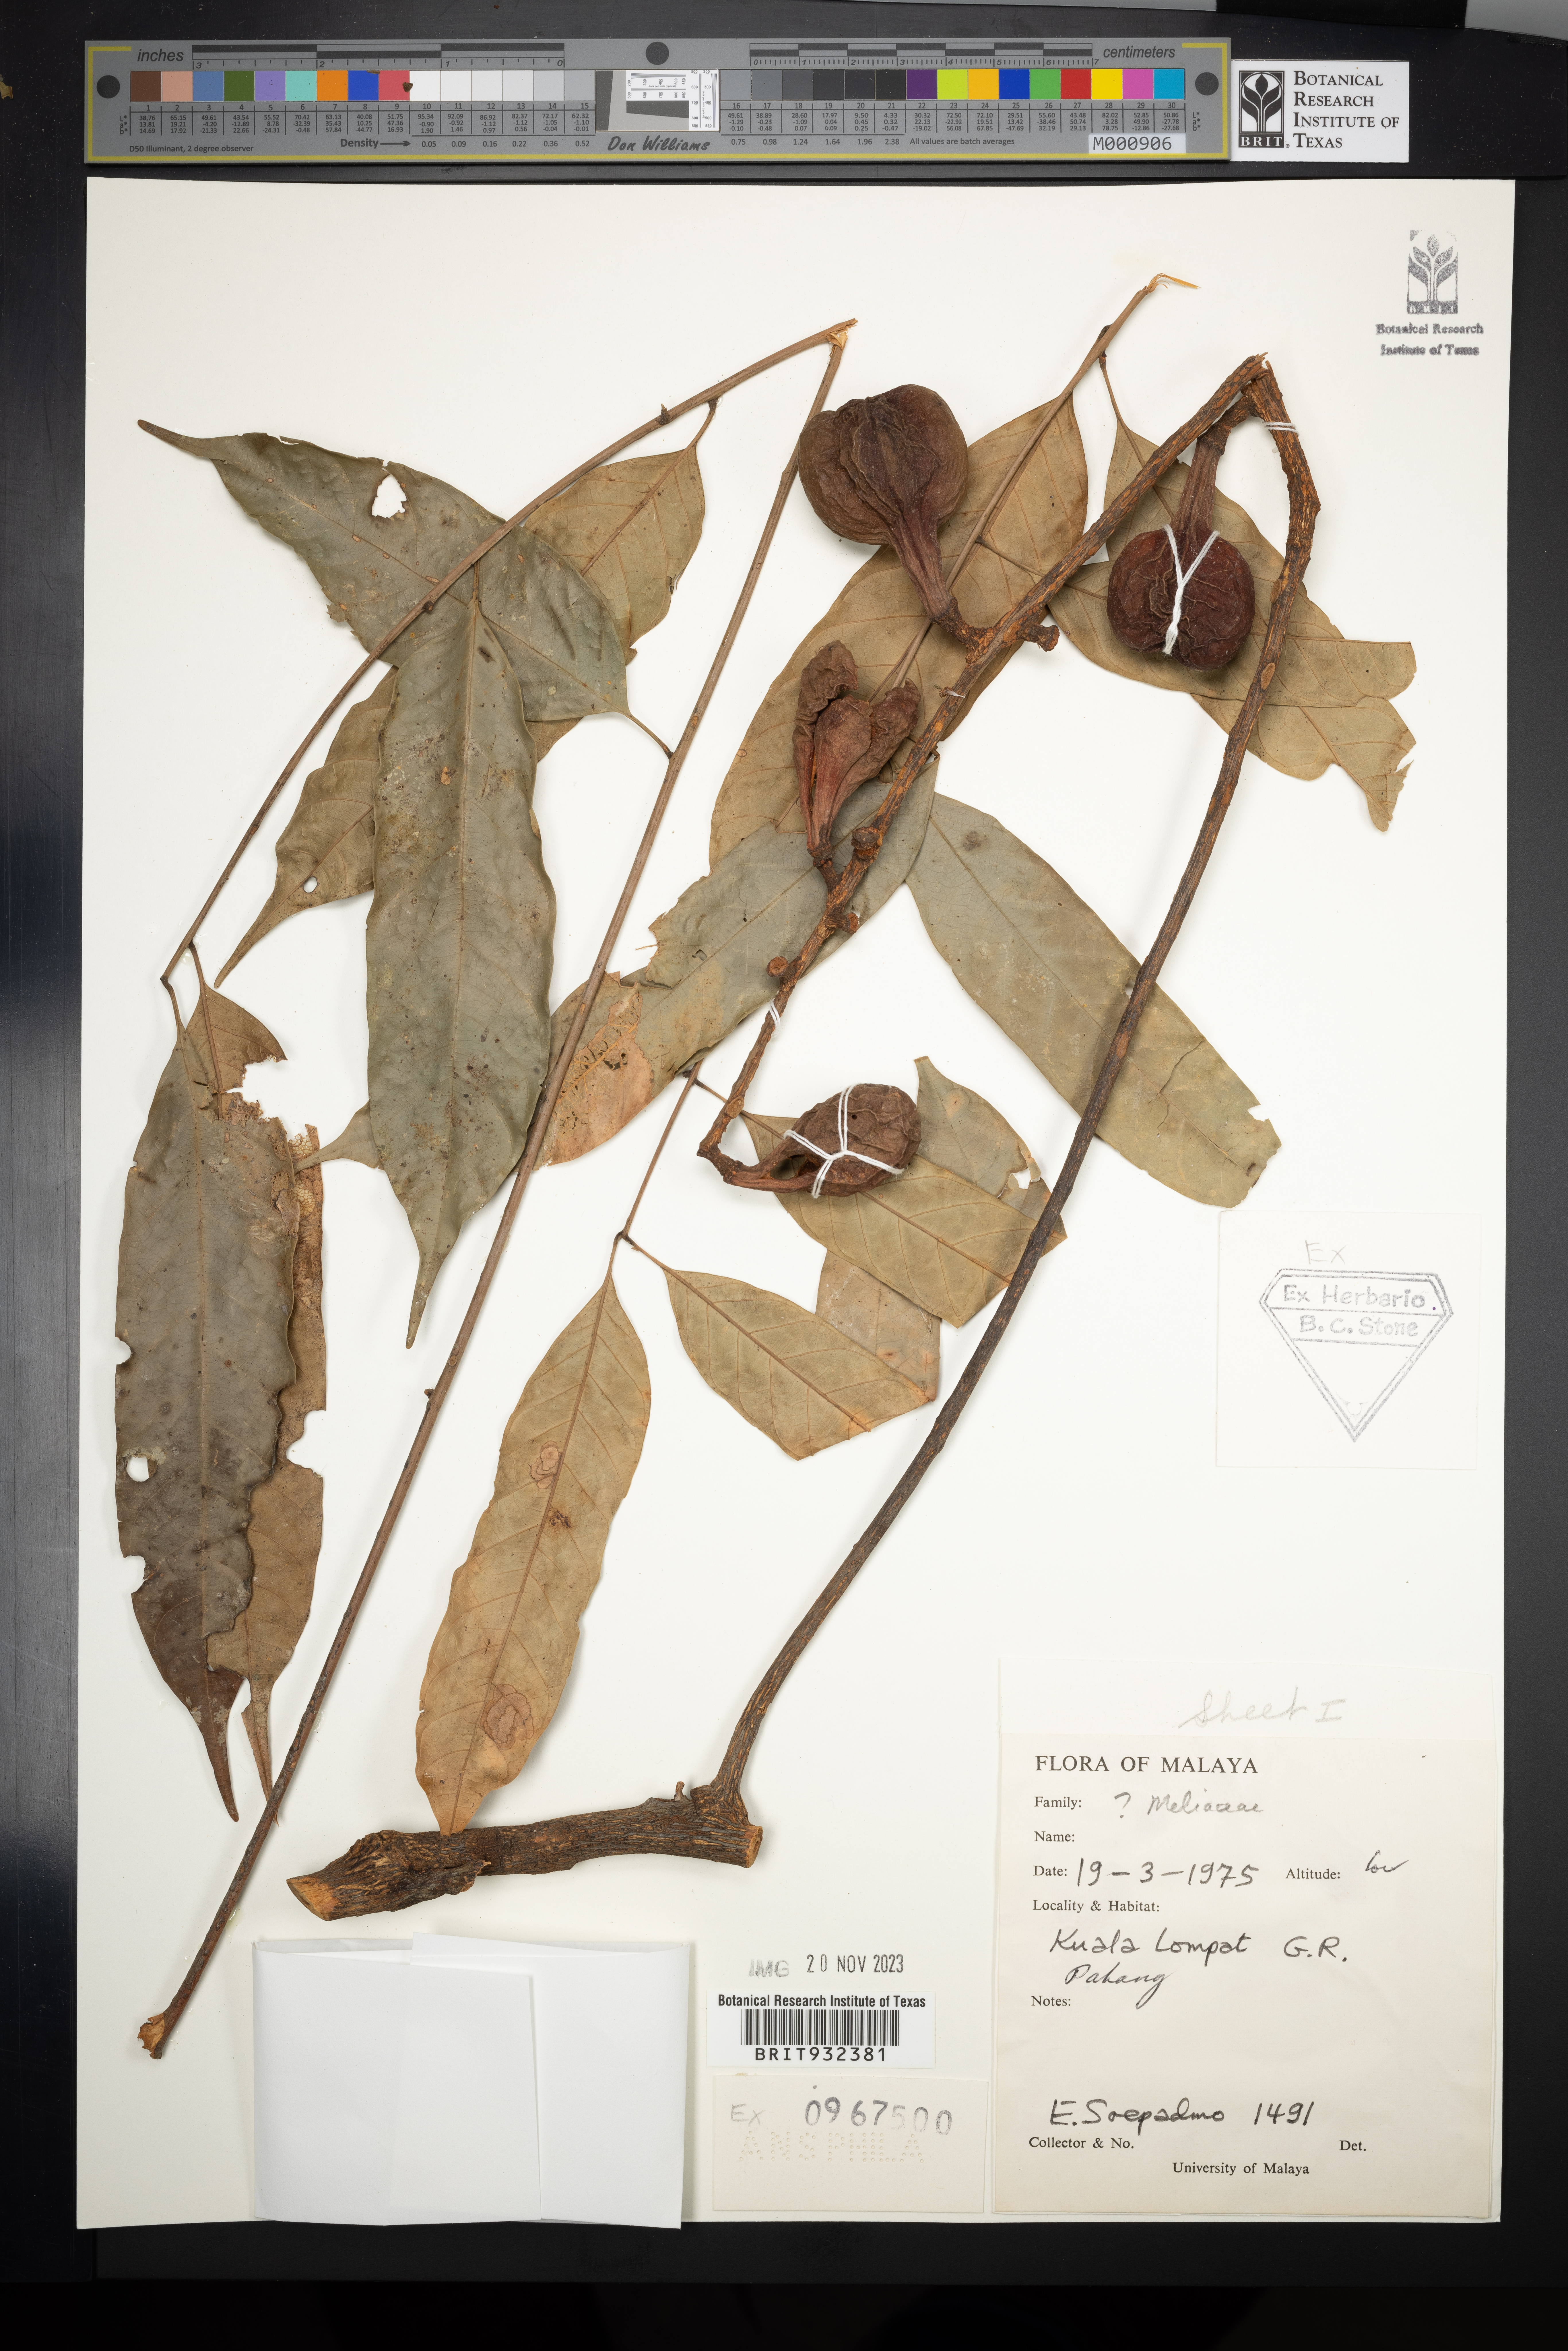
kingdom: Plantae
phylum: Tracheophyta
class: Magnoliopsida
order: Sapindales
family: Meliaceae
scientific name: Meliaceae
